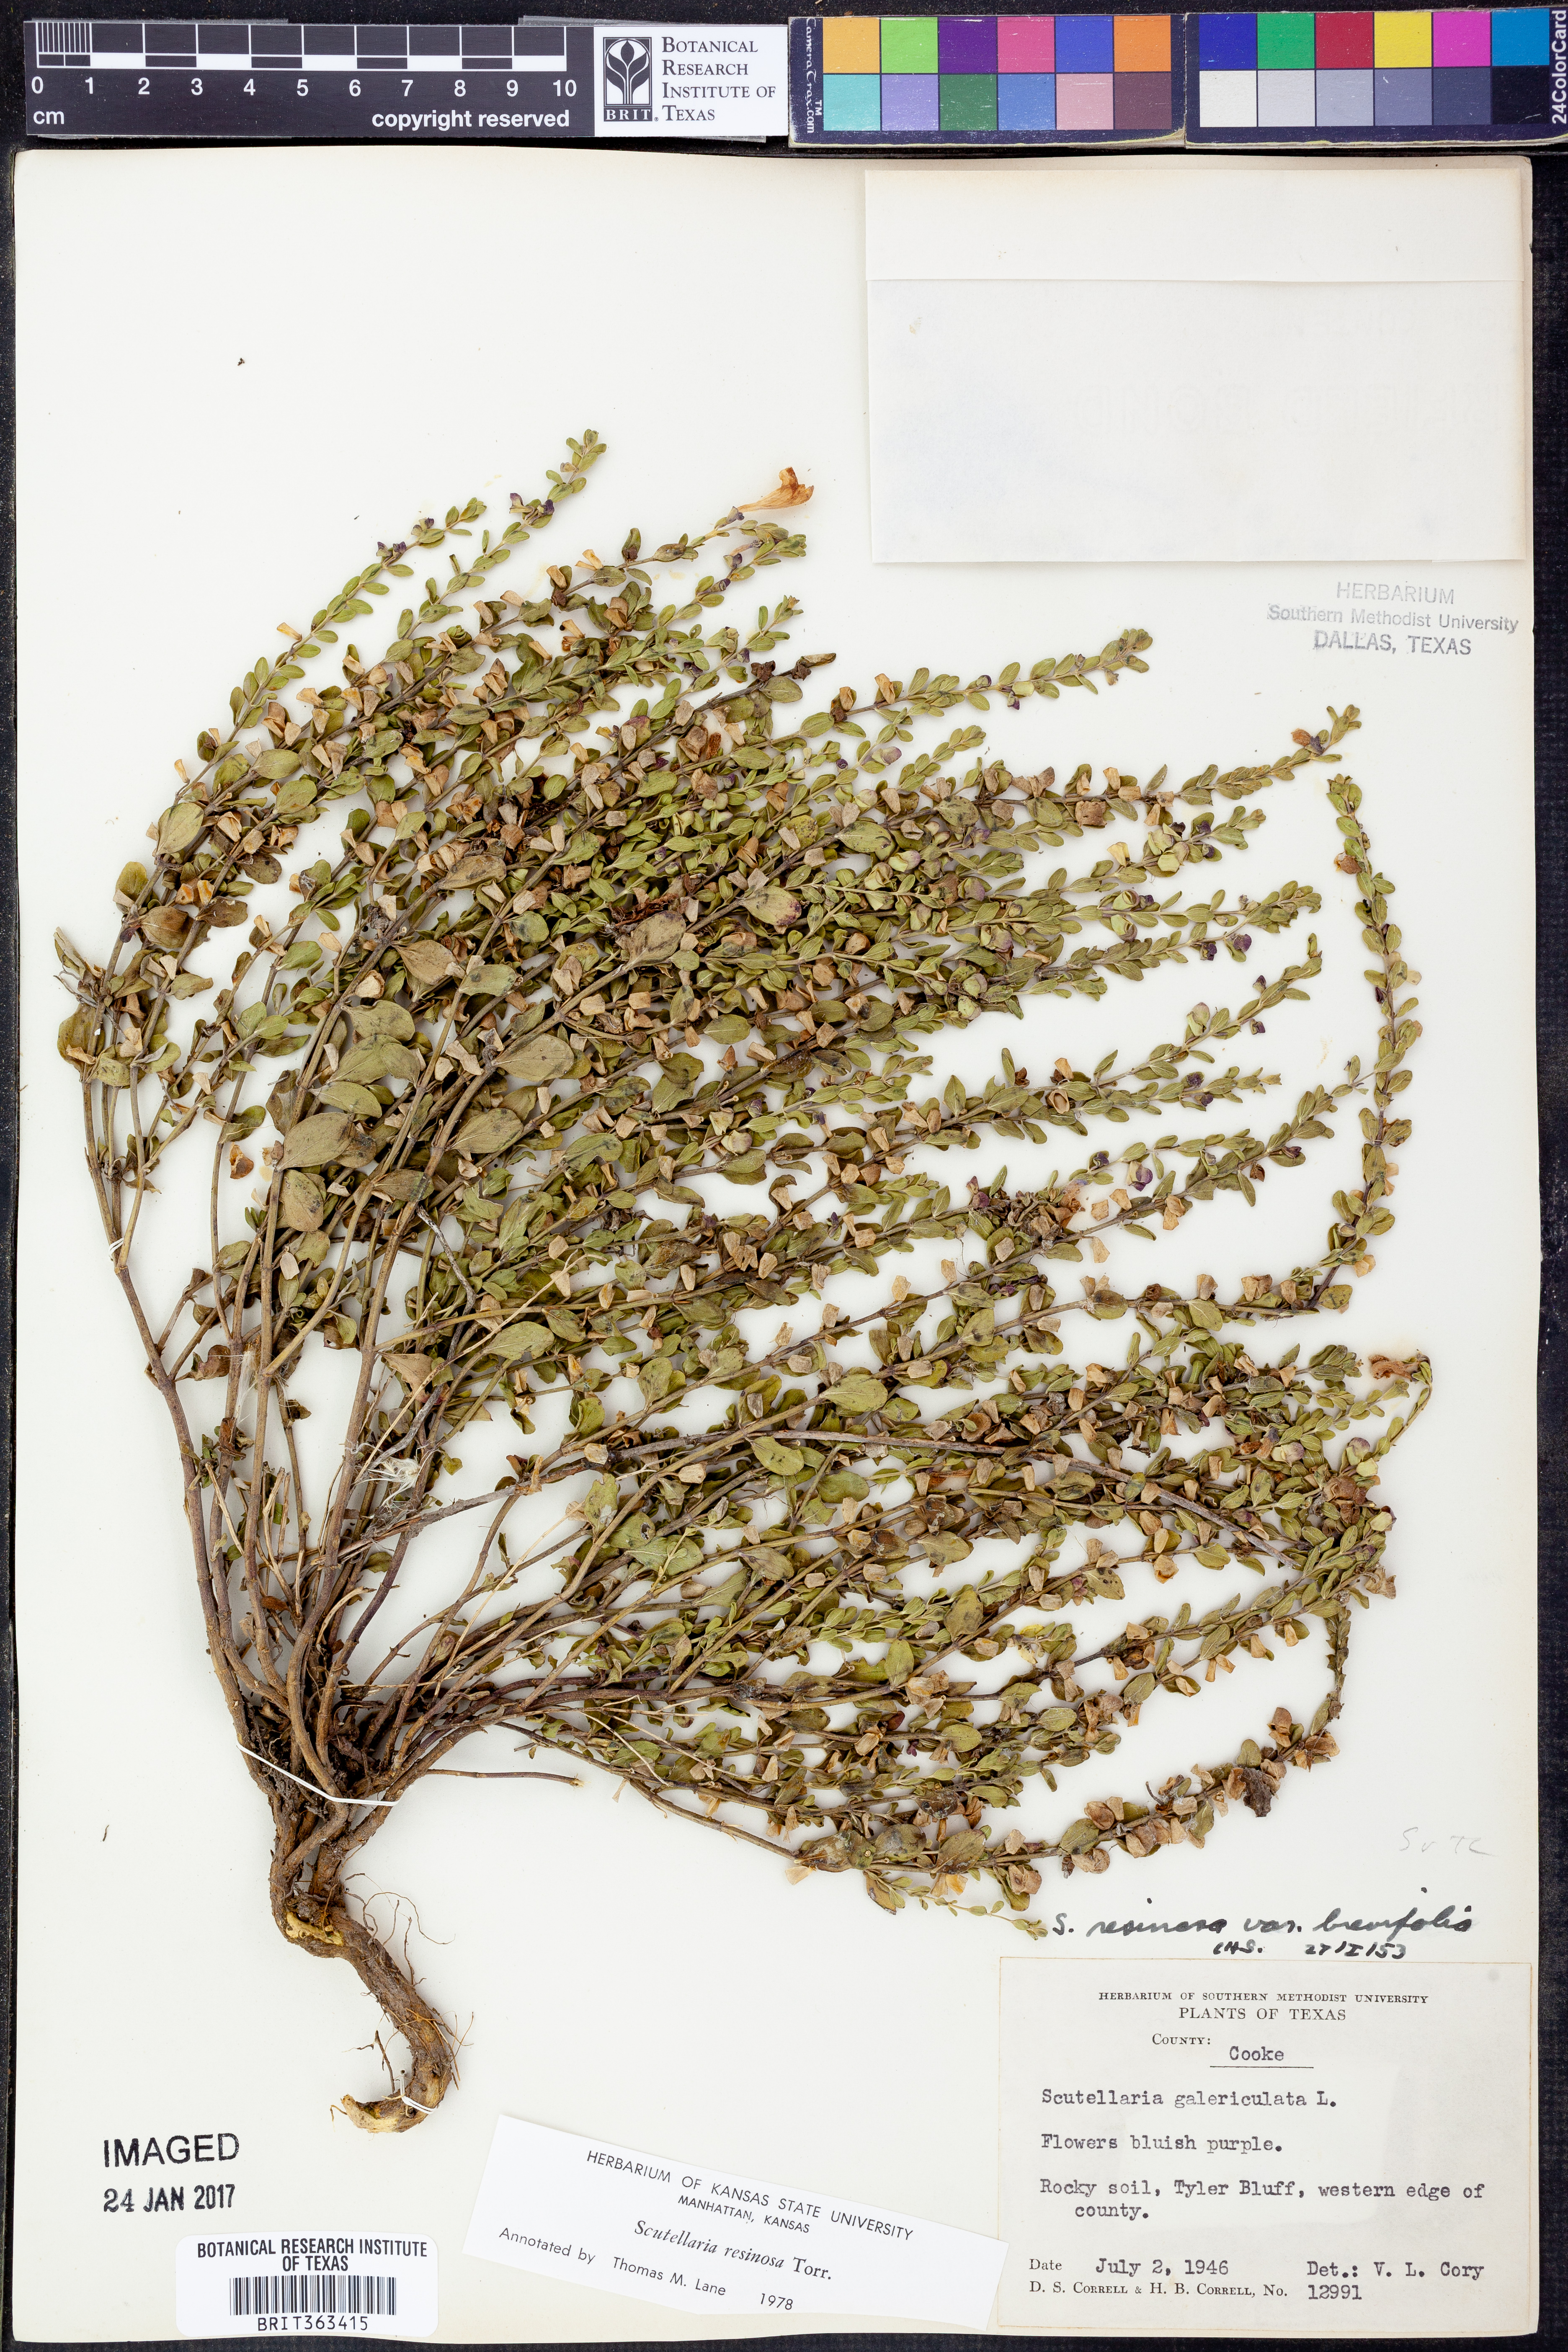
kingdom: Plantae
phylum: Tracheophyta
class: Magnoliopsida
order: Lamiales
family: Lamiaceae
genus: Scutellaria
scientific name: Scutellaria resinosa
